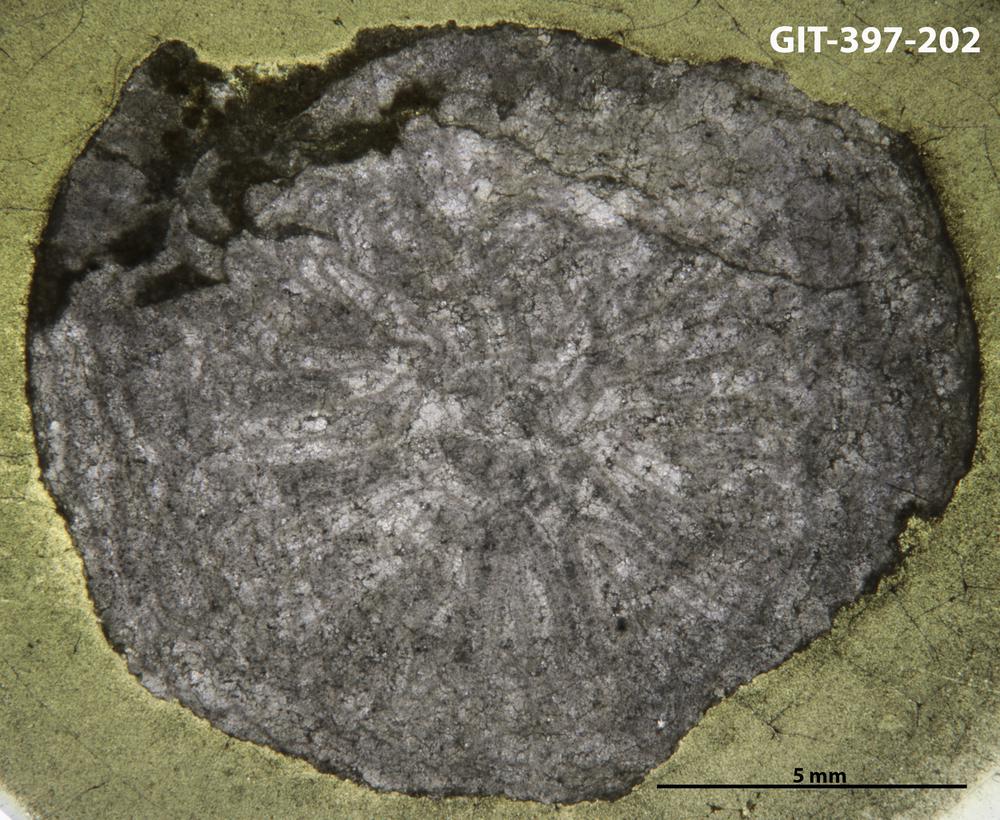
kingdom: Animalia
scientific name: Animalia
